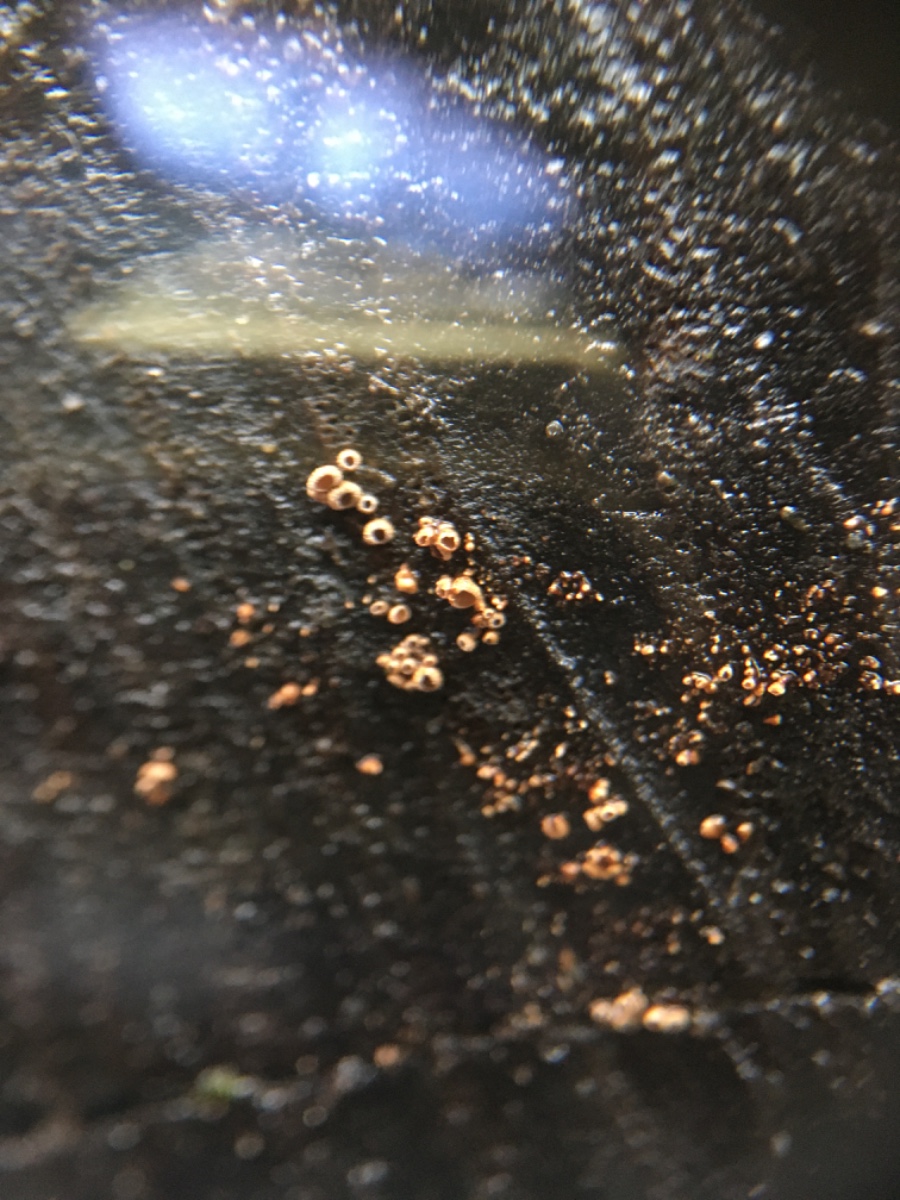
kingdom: Fungi
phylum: Basidiomycota
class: Agaricomycetes
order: Agaricales
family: Niaceae
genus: Merismodes
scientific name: Merismodes anomala
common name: almindelig læderskål
